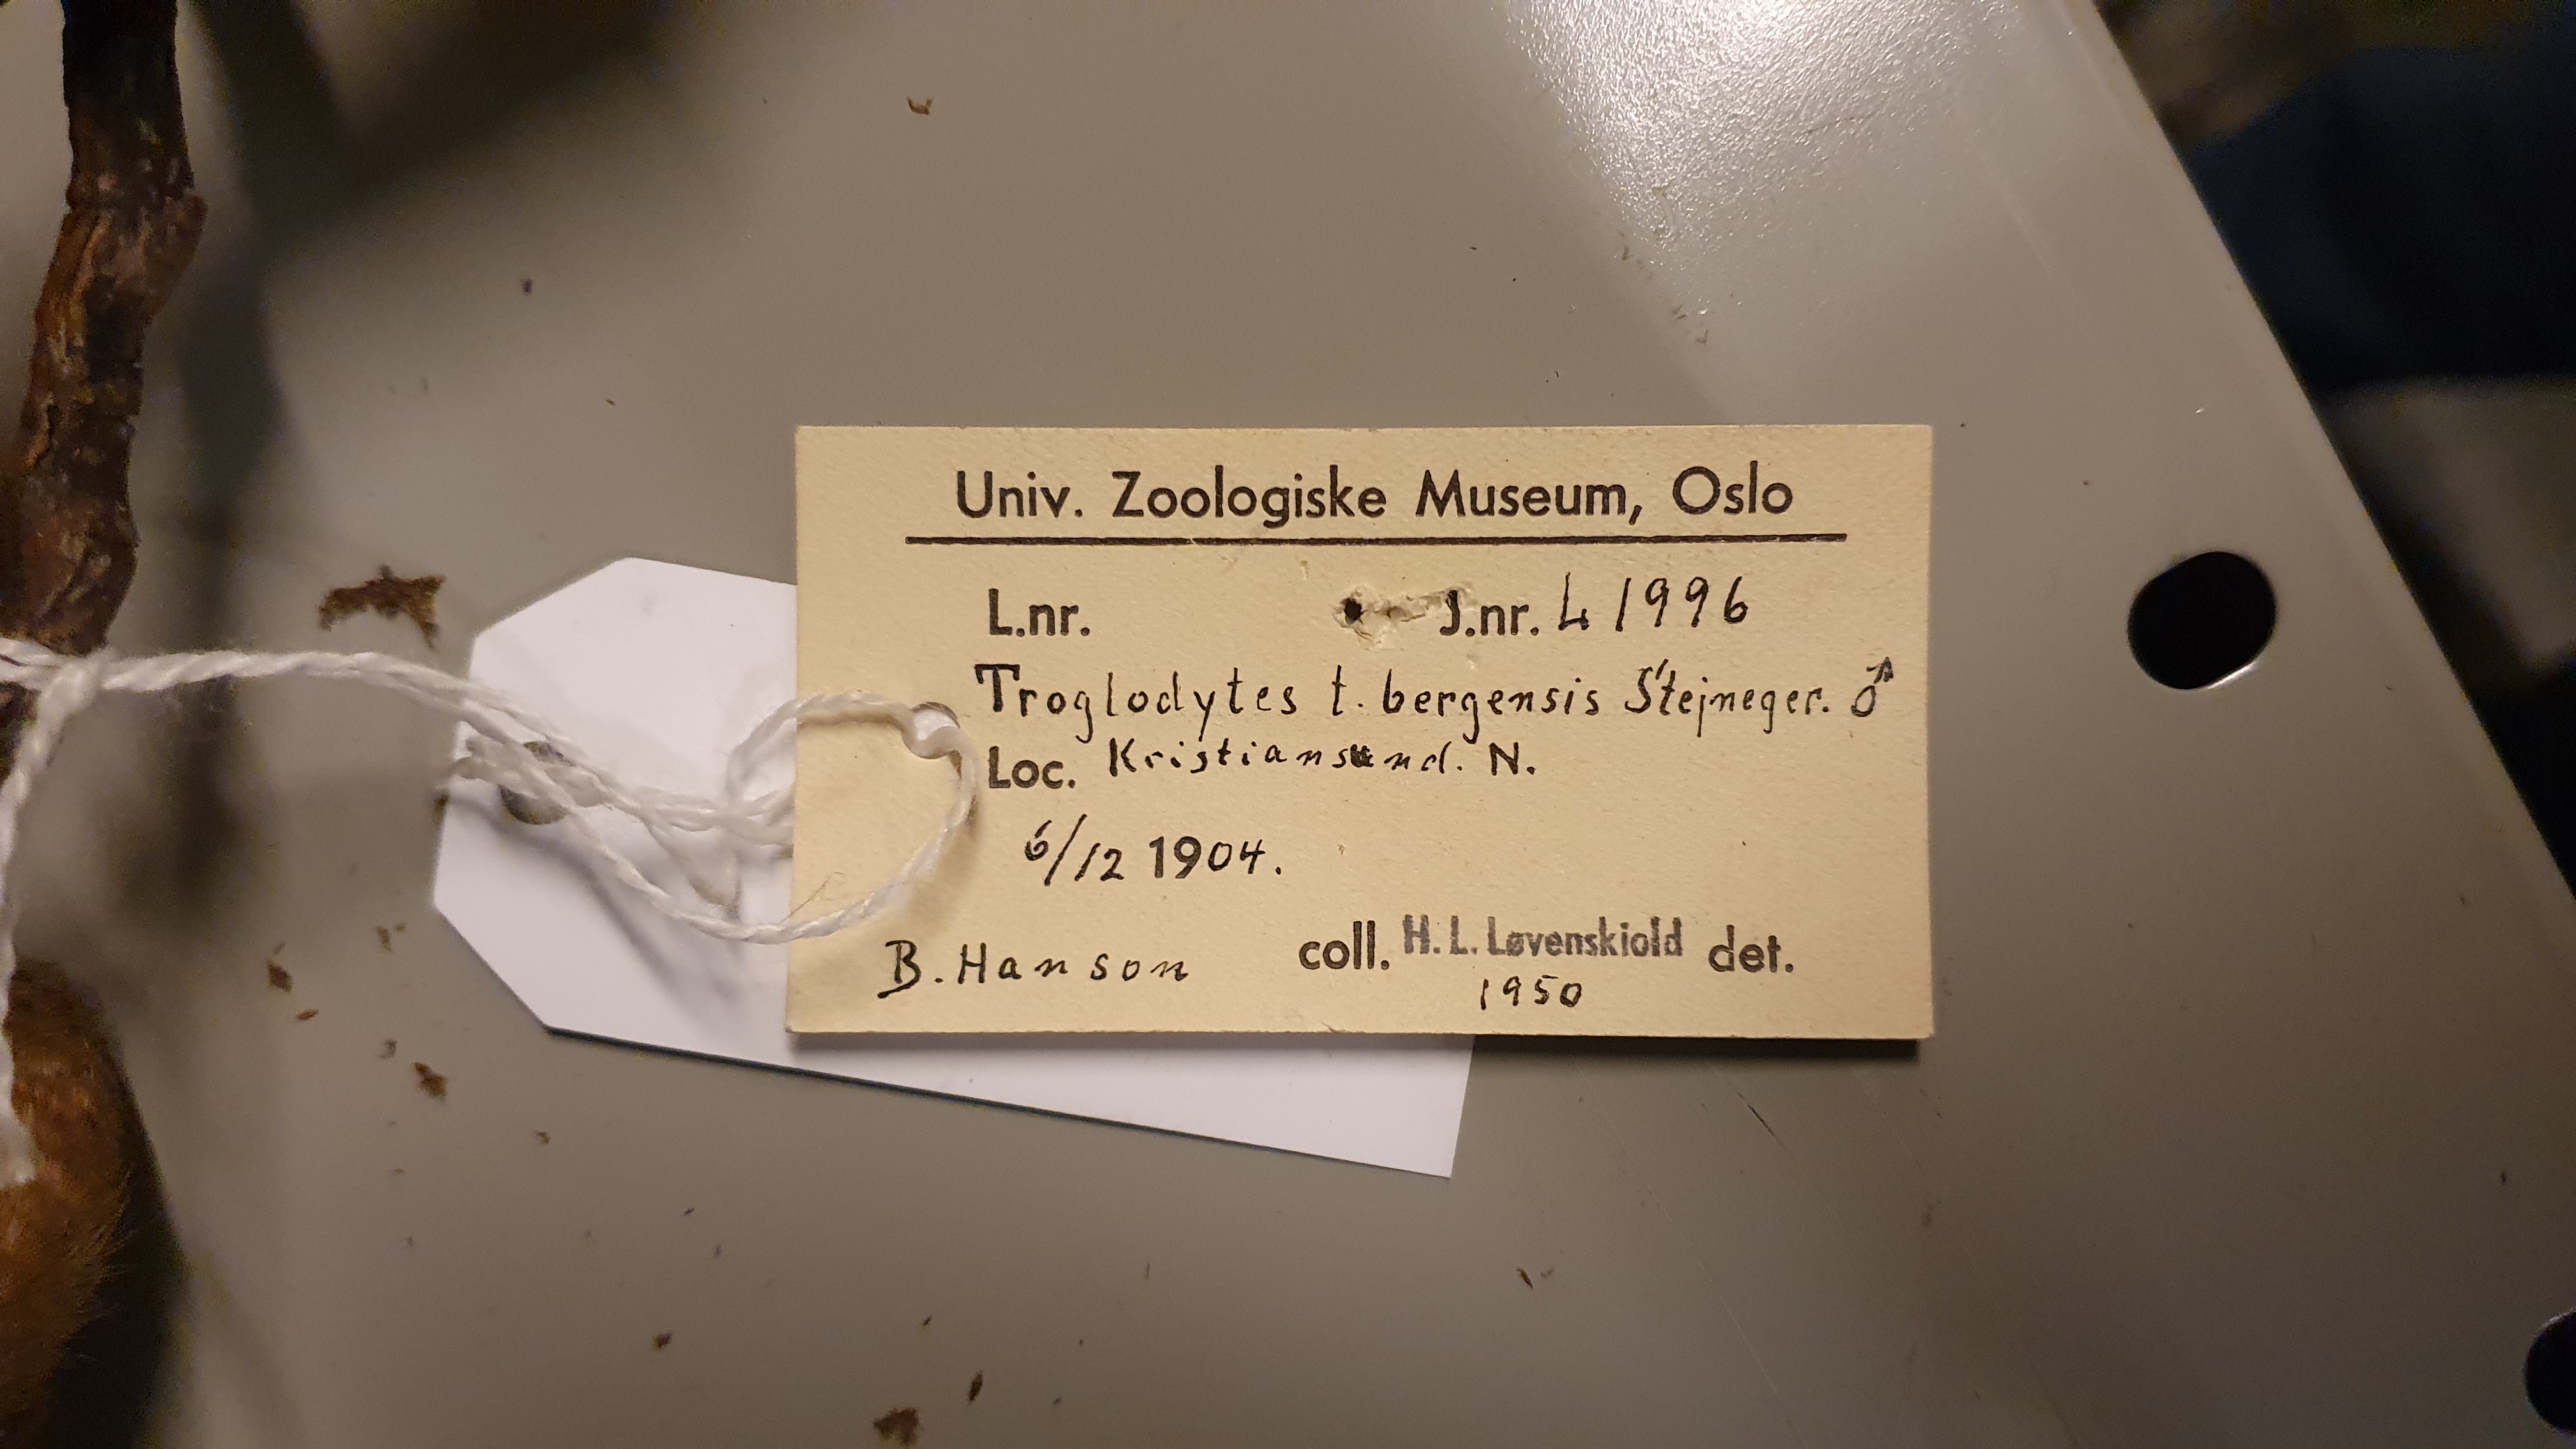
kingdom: Animalia
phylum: Chordata
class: Aves
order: Passeriformes
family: Troglodytidae
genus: Troglodytes
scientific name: Troglodytes troglodytes
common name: Eurasian wren
